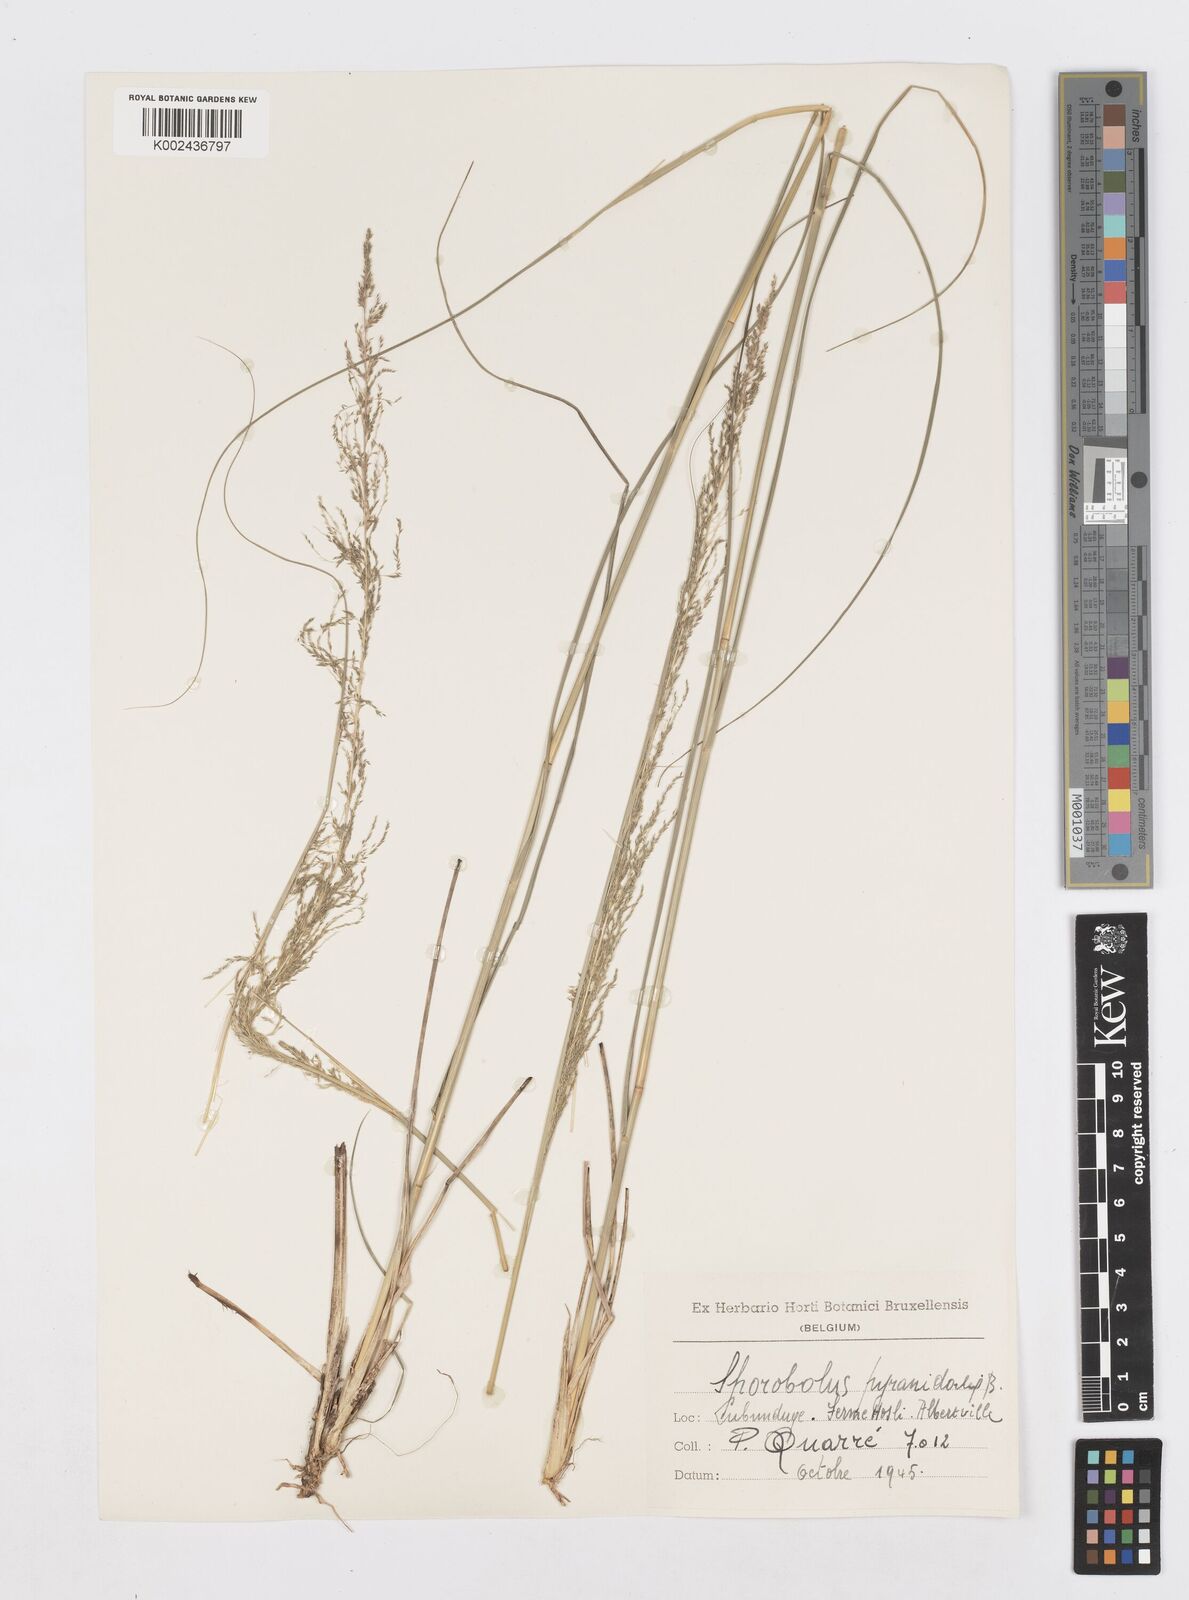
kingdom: Plantae
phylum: Tracheophyta
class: Liliopsida
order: Poales
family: Poaceae
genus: Sporobolus
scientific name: Sporobolus pyramidalis
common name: West indian dropseed
